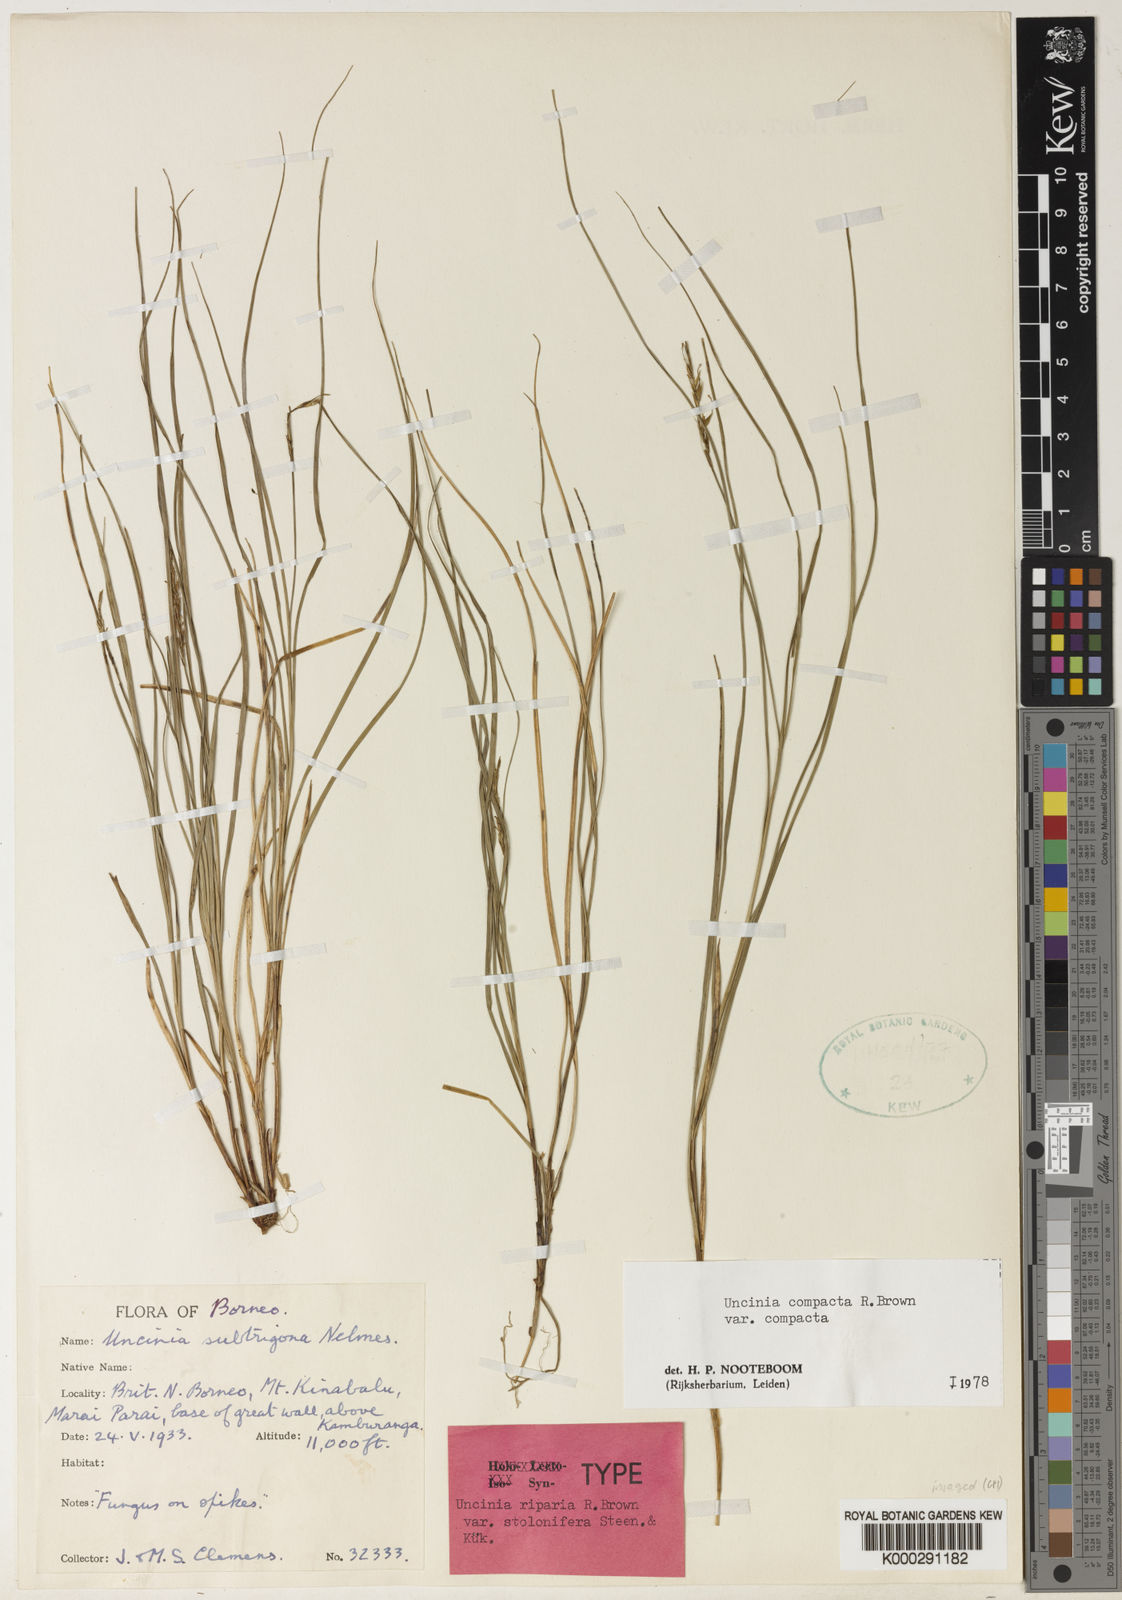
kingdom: Plantae
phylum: Tracheophyta
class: Liliopsida
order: Poales
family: Cyperaceae
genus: Carex
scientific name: Carex austrocompacta
